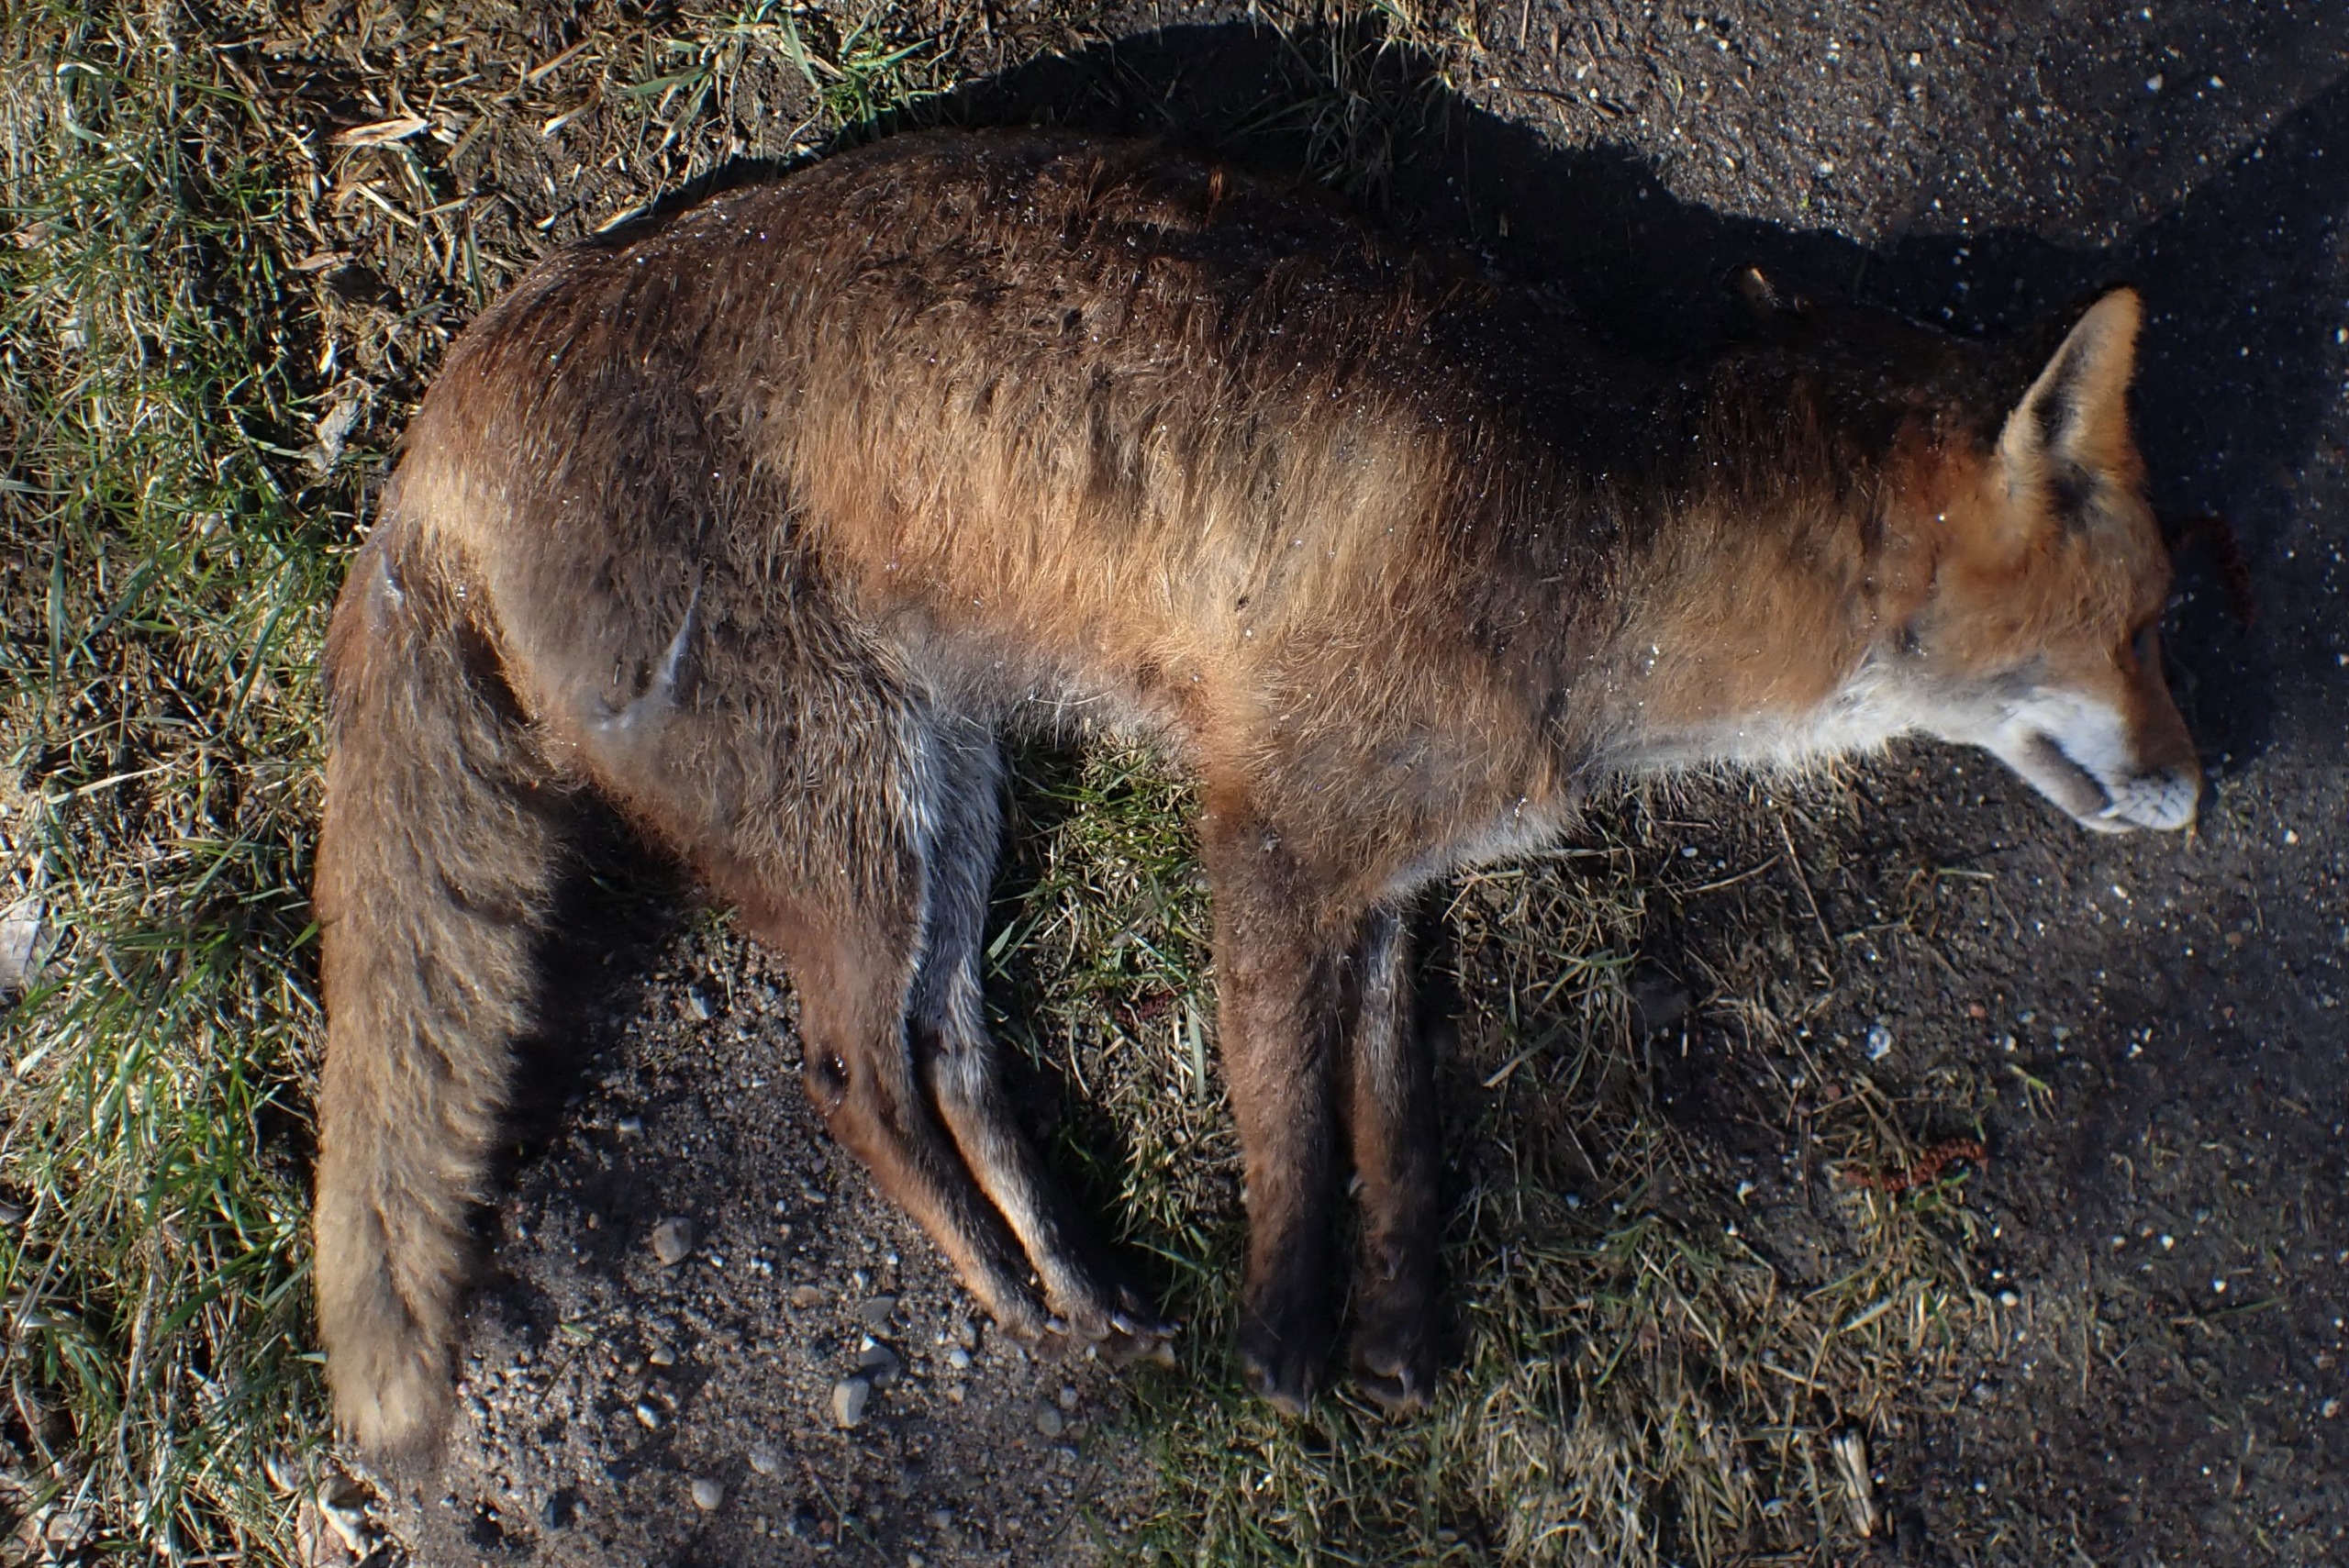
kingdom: Animalia
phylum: Chordata
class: Mammalia
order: Carnivora
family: Canidae
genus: Vulpes
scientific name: Vulpes vulpes
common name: Ræv
